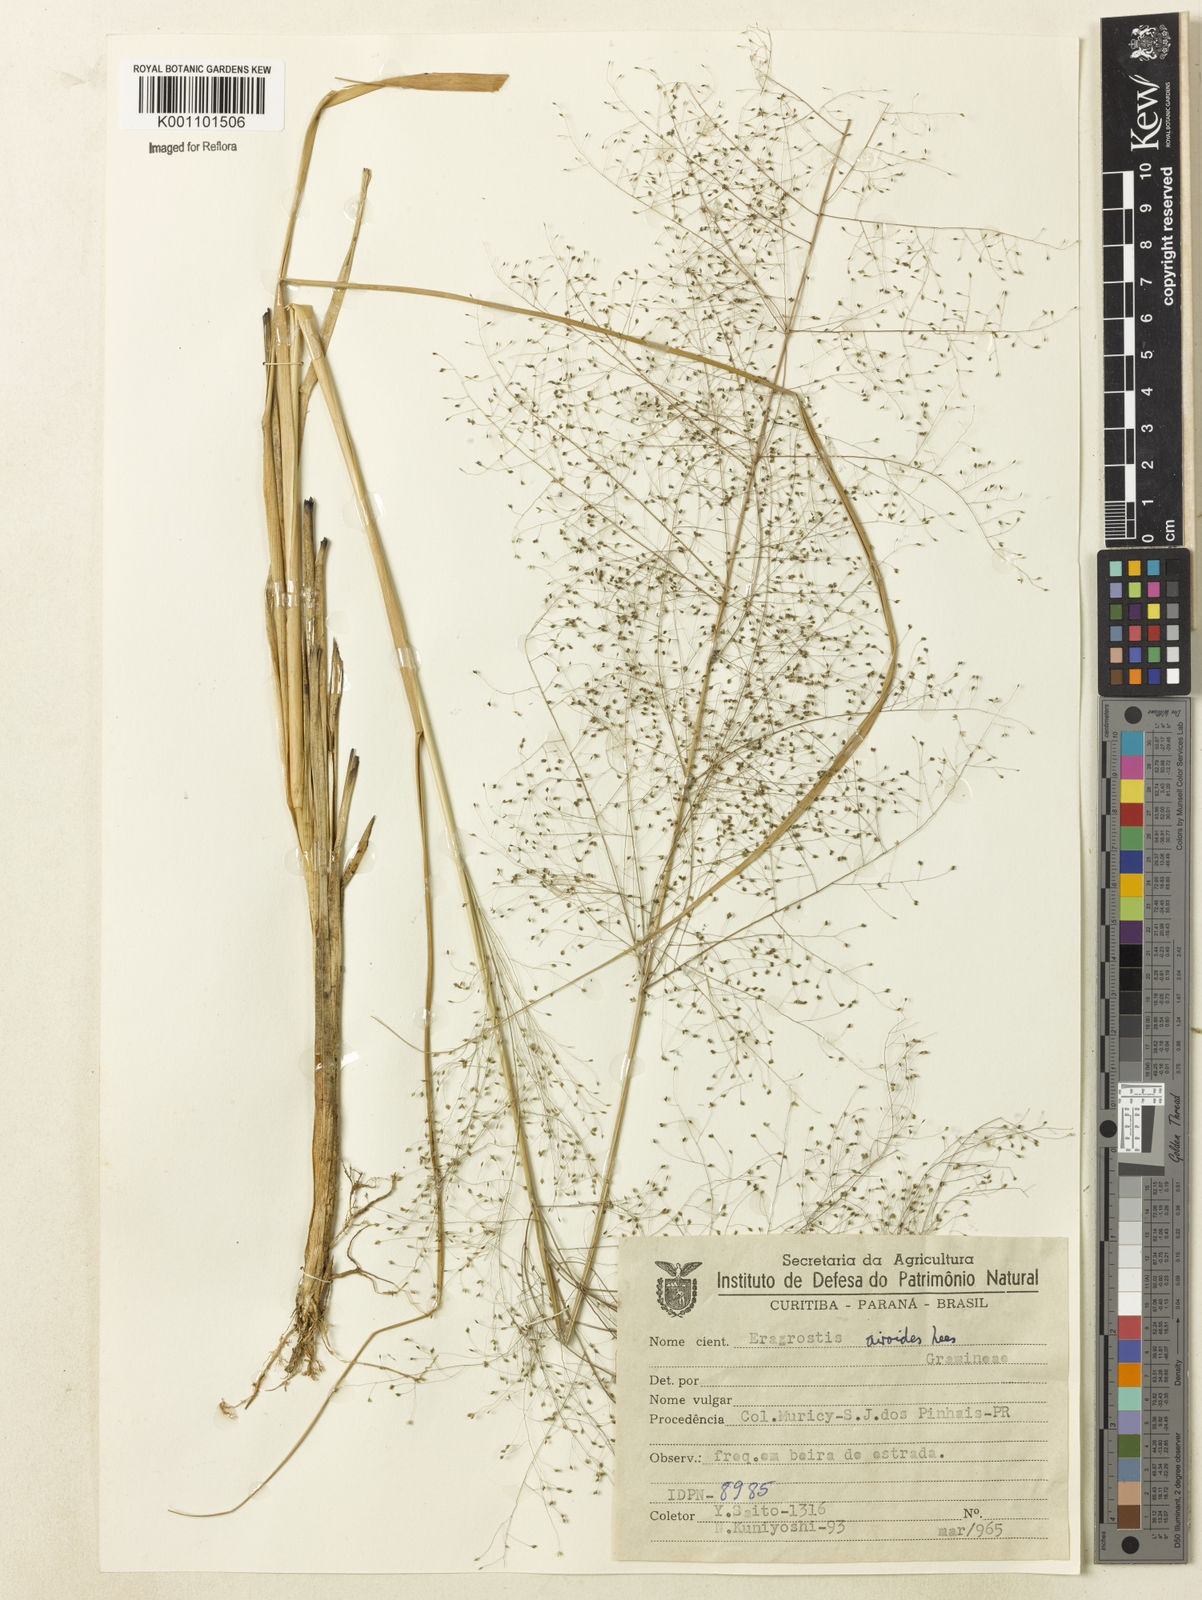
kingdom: Plantae
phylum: Tracheophyta
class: Liliopsida
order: Poales
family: Poaceae
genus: Eragrostis
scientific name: Eragrostis airoides
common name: Darnel lovegrass
